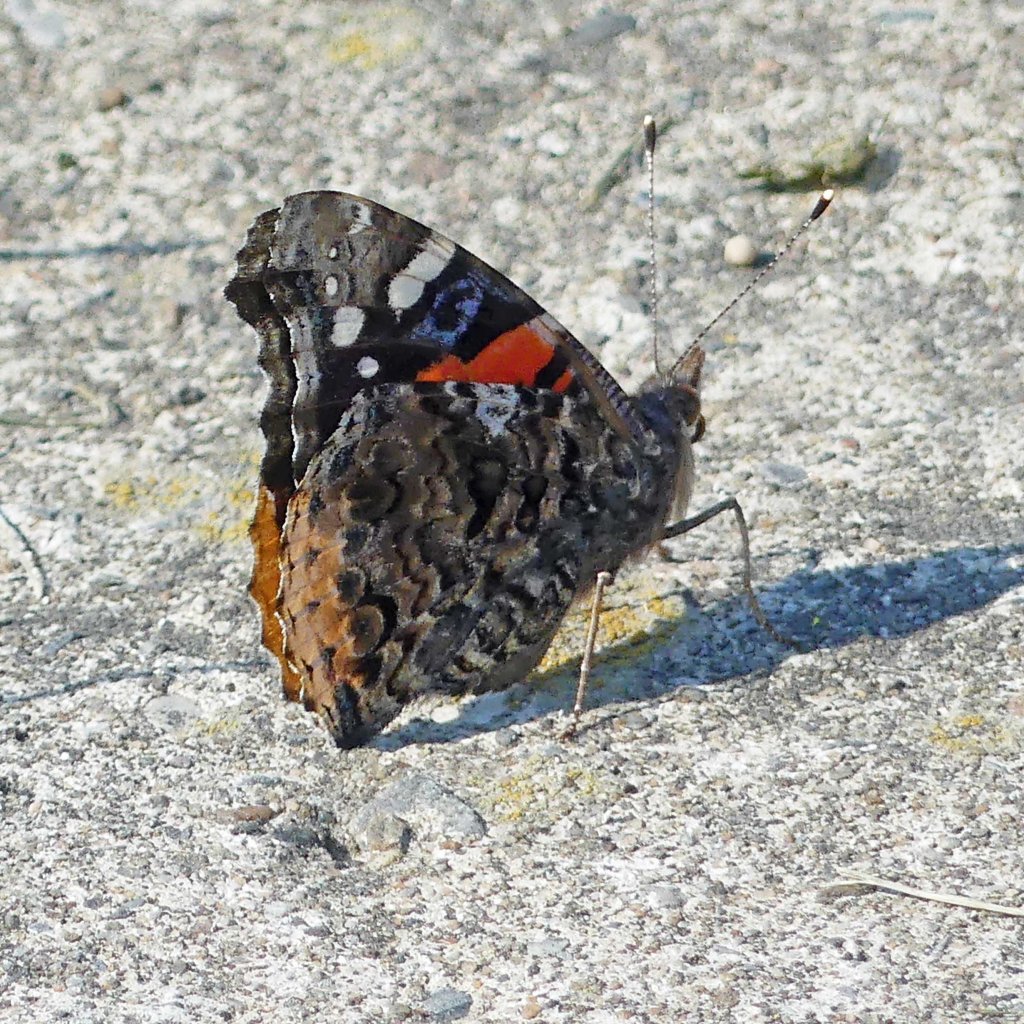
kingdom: Animalia
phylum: Arthropoda
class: Insecta
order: Lepidoptera
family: Nymphalidae
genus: Vanessa
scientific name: Vanessa atalanta
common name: Red Admiral
